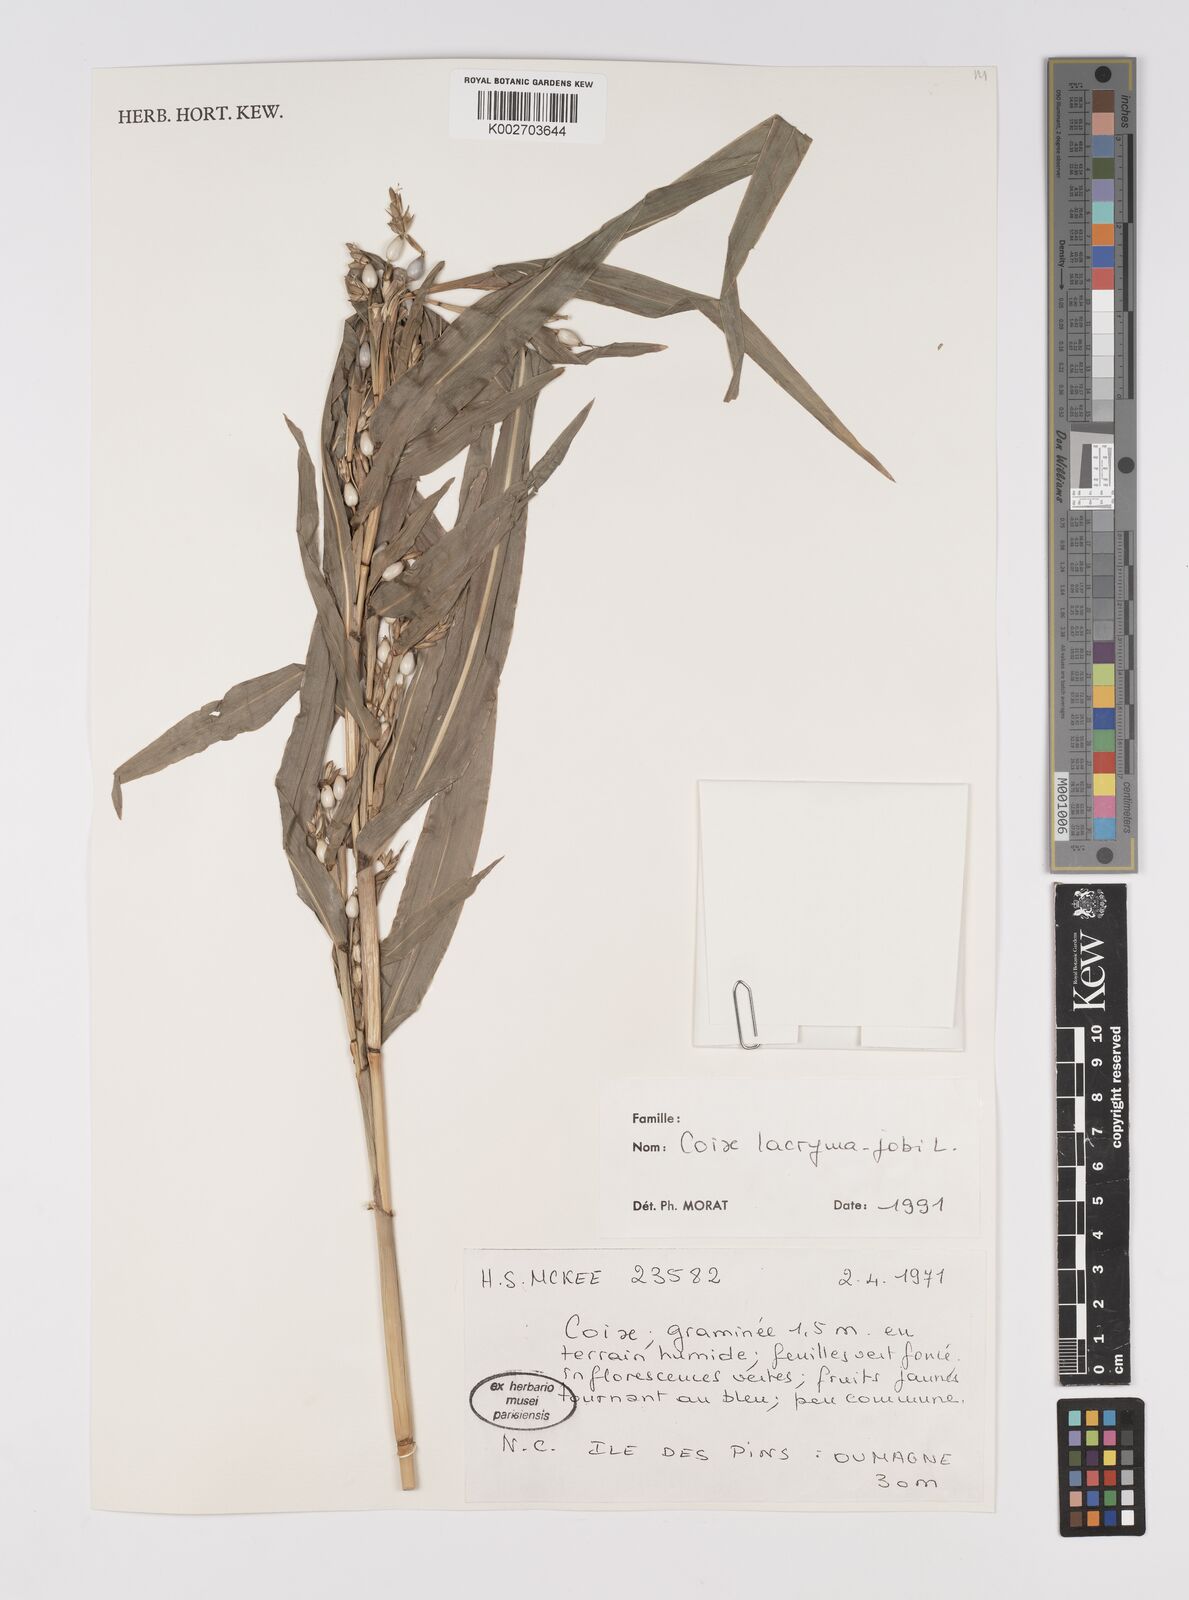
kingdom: Plantae
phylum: Tracheophyta
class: Liliopsida
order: Poales
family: Poaceae
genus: Coix
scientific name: Coix lacryma-jobi
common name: Job's tears
